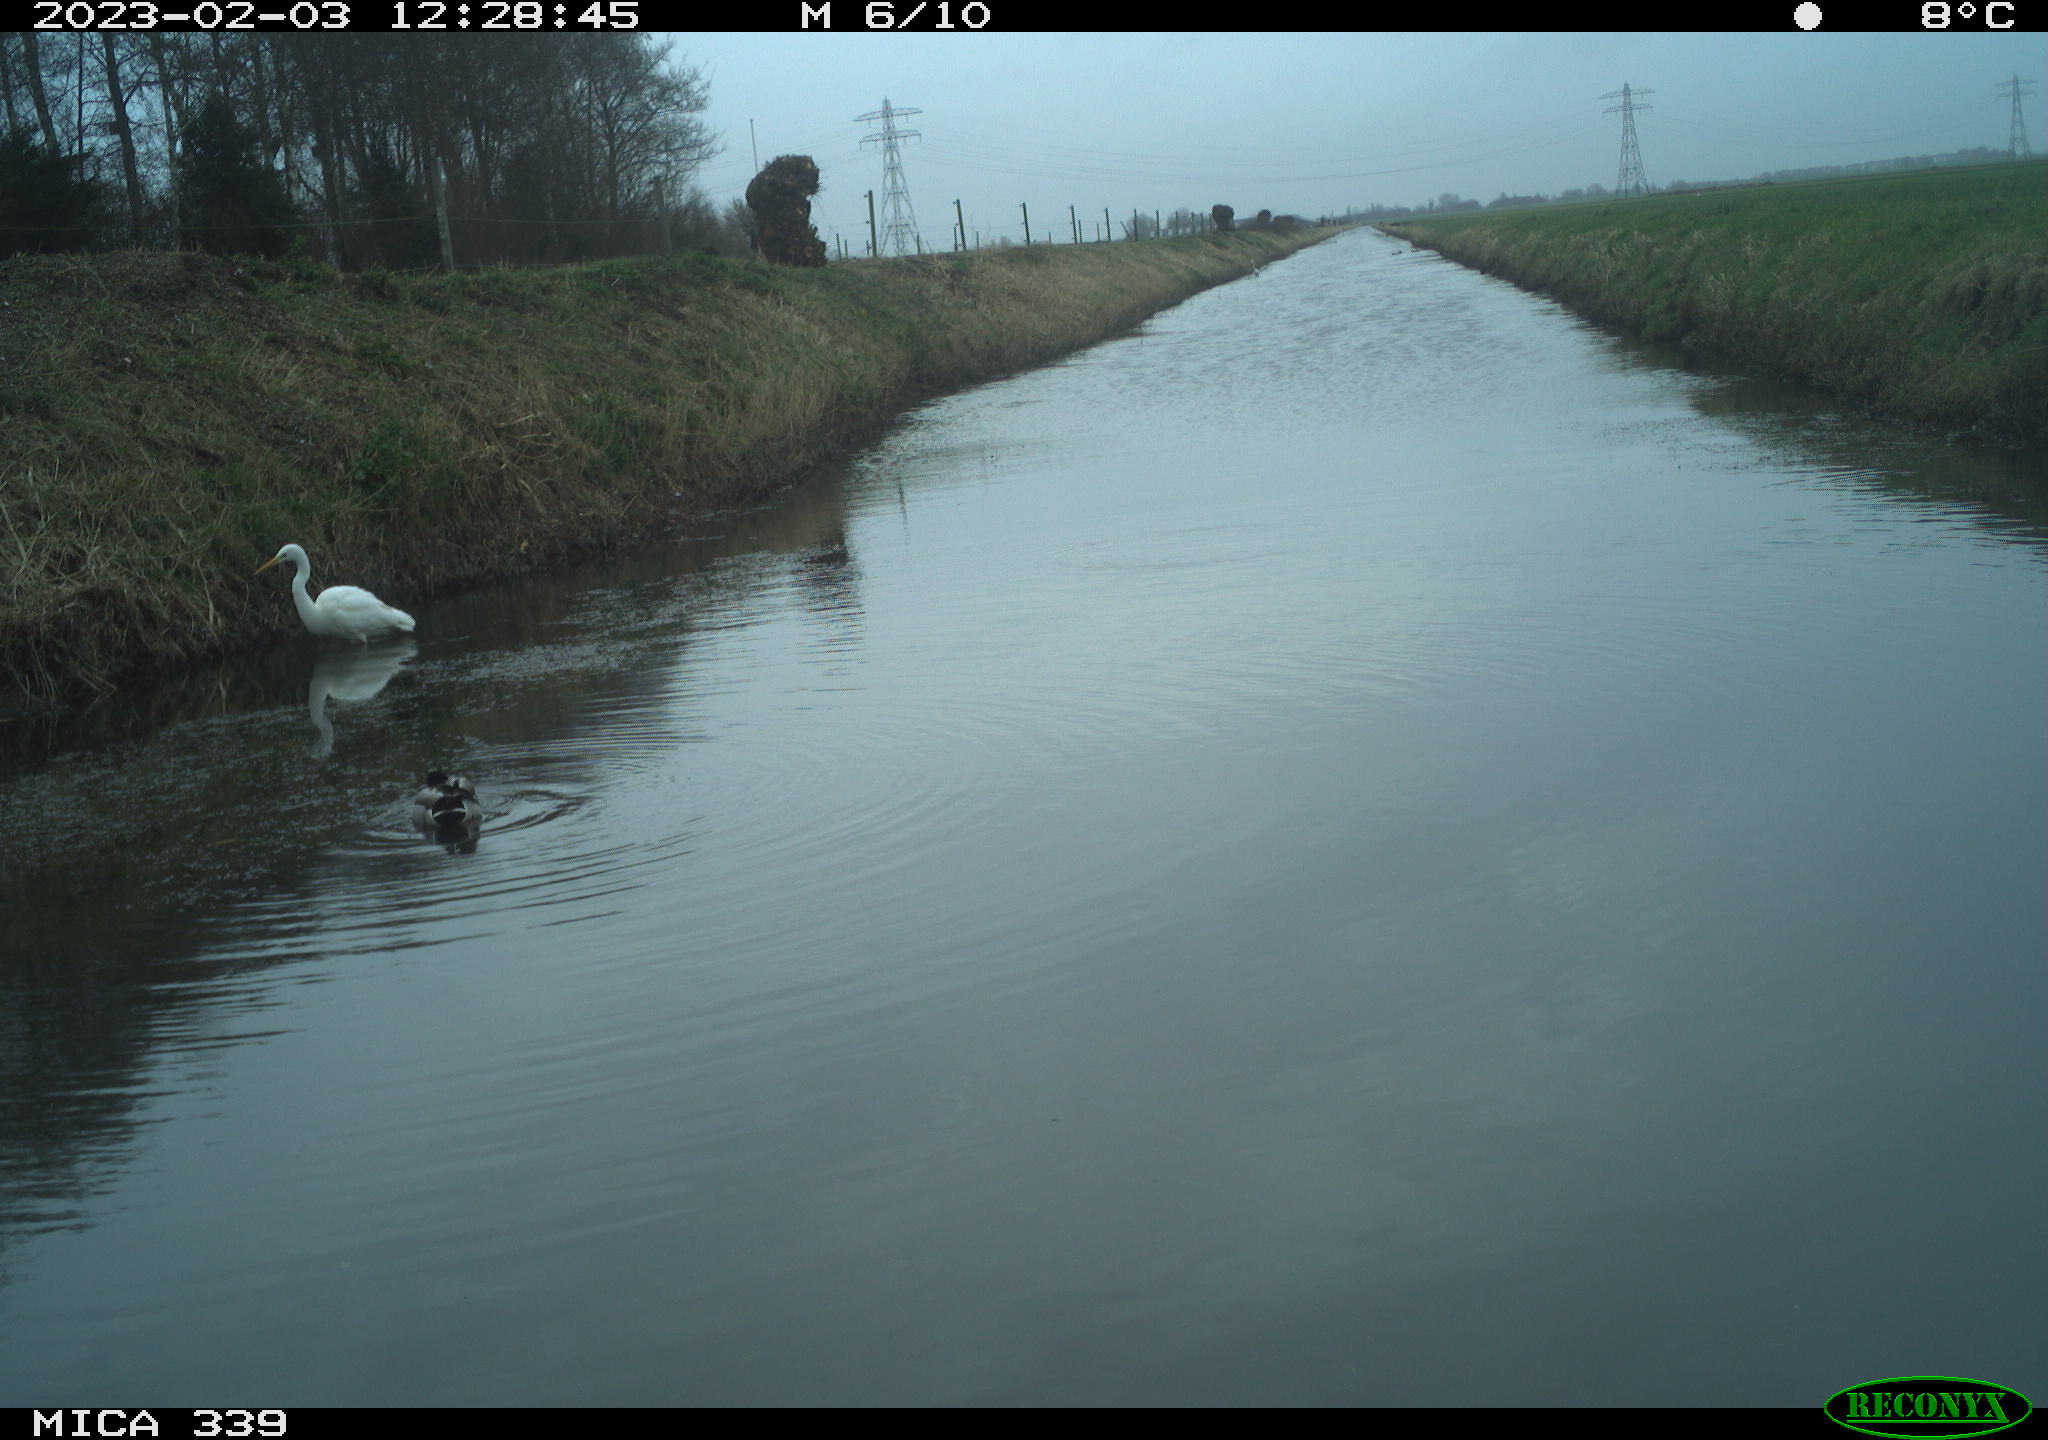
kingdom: Animalia
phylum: Chordata
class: Aves
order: Anseriformes
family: Anatidae
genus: Anas
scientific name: Anas platyrhynchos
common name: Mallard
